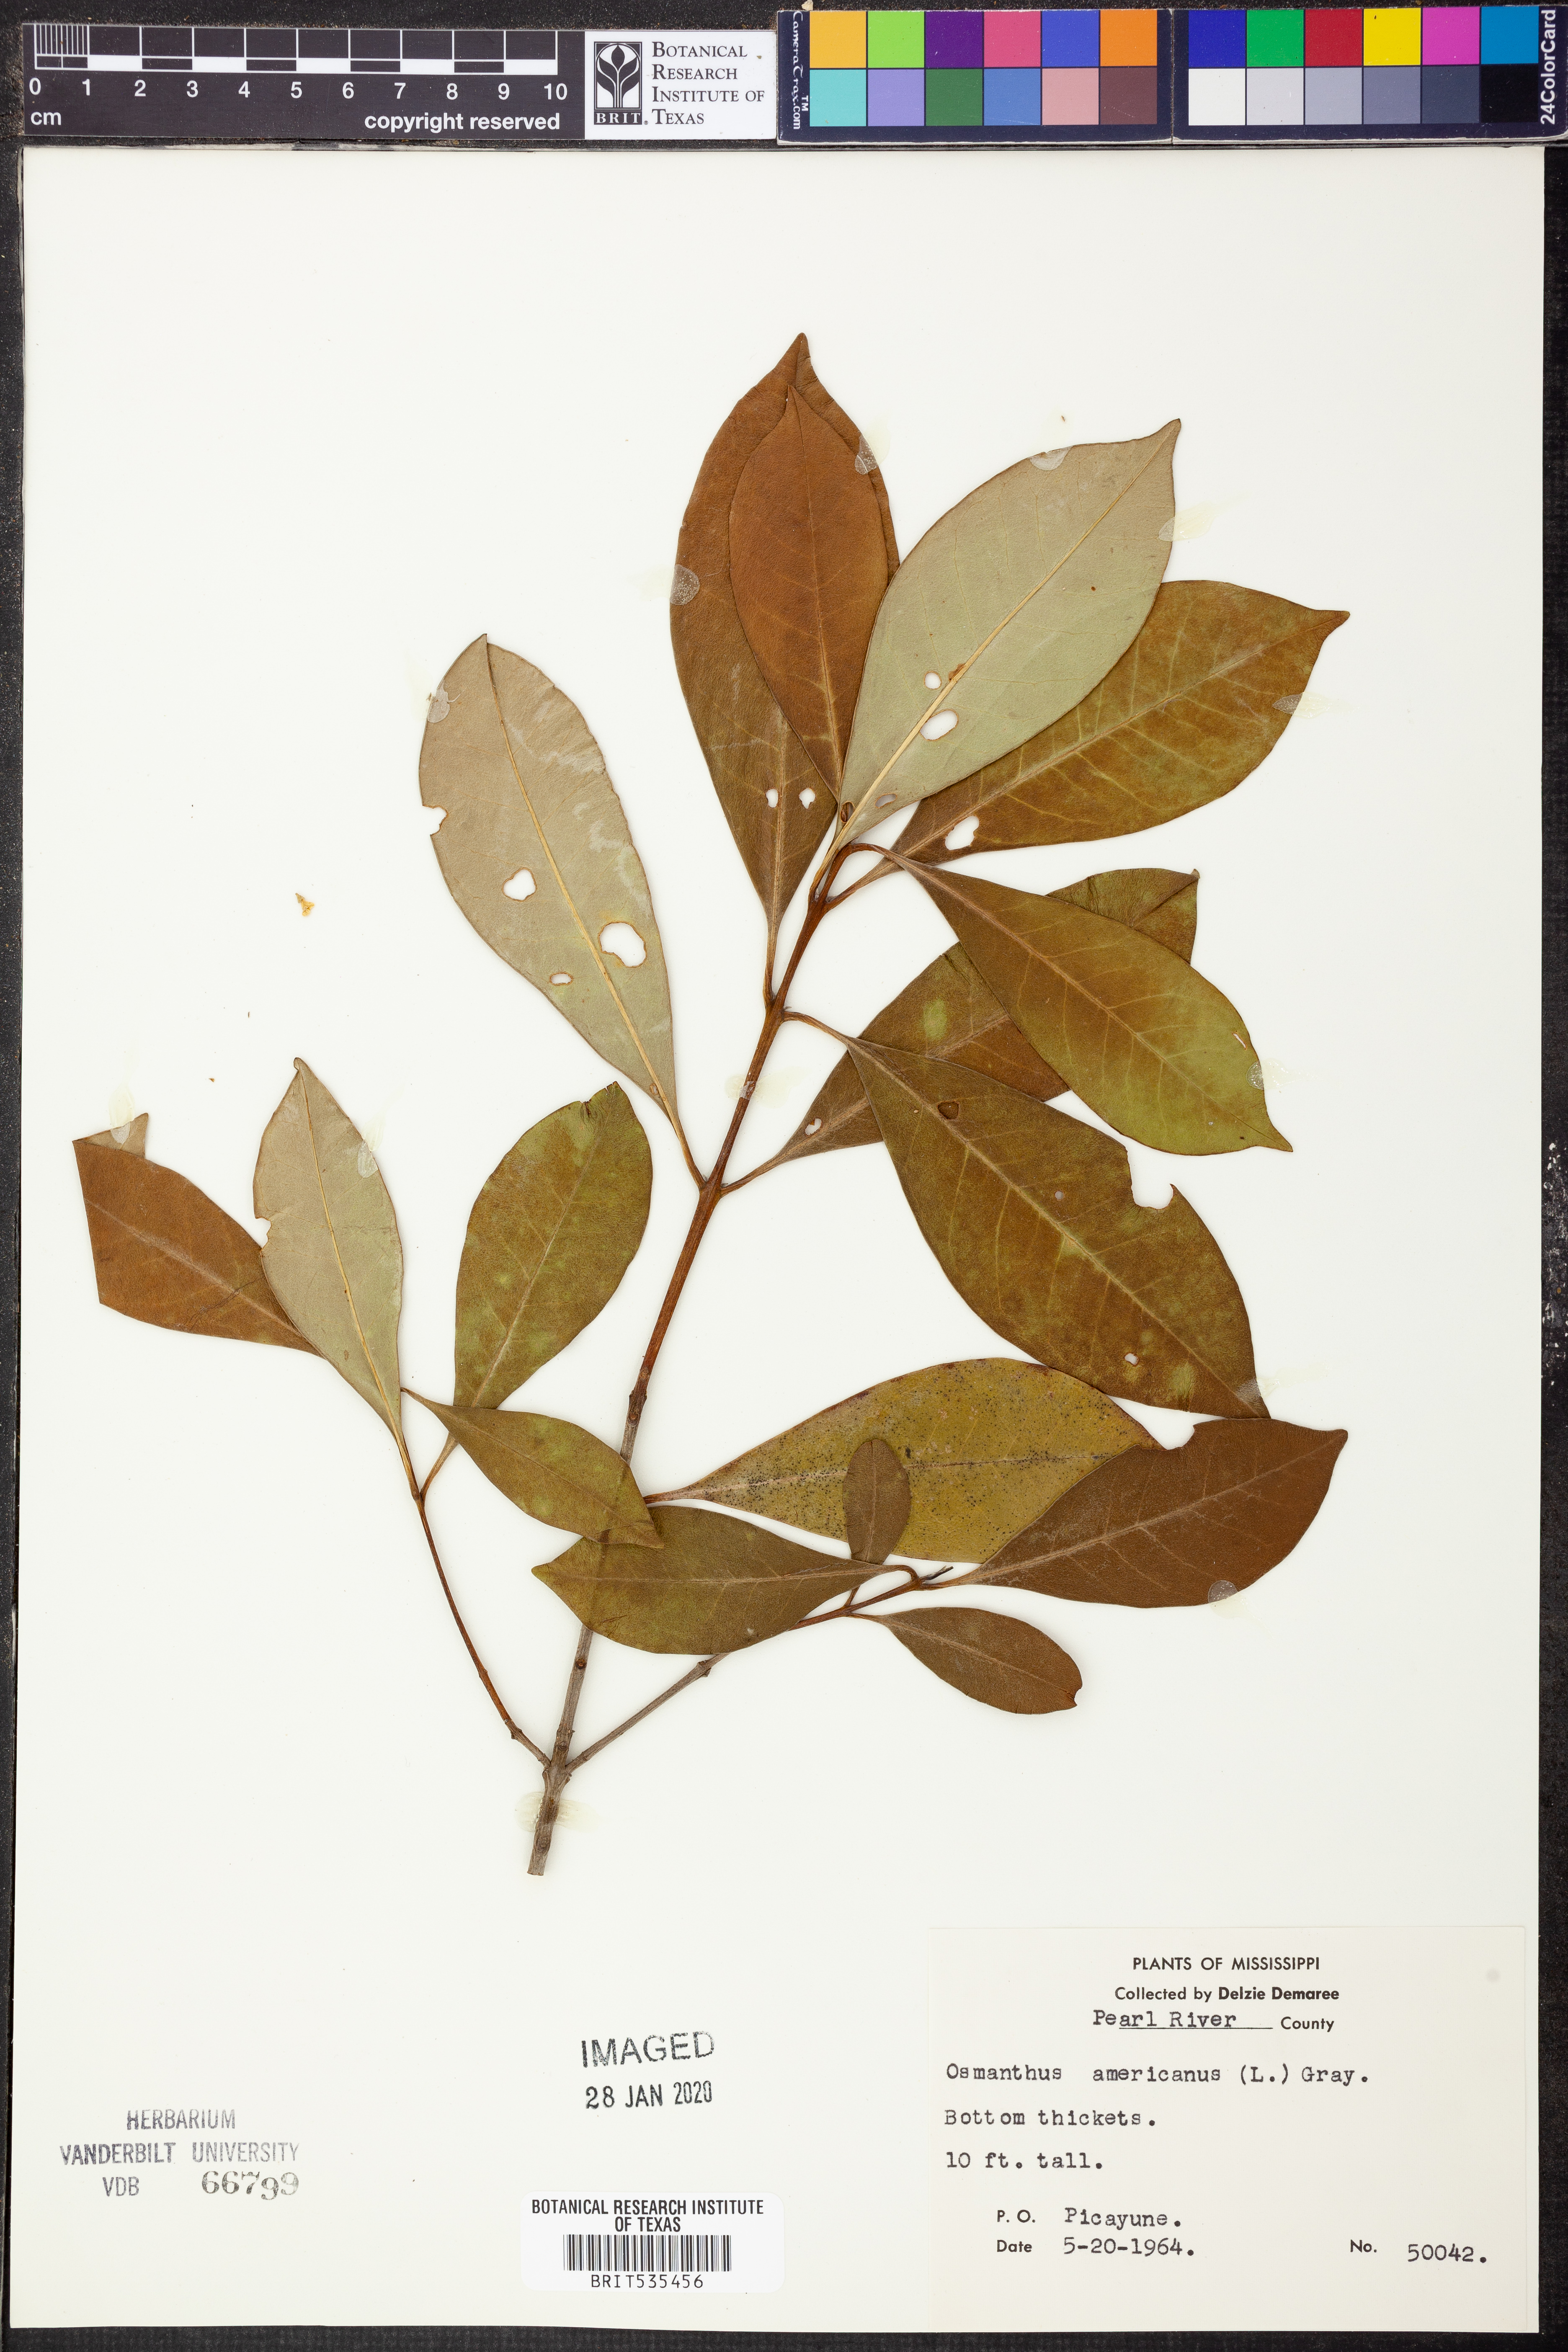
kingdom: Plantae
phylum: Tracheophyta
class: Magnoliopsida
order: Lamiales
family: Oleaceae
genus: Osmanthus
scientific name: Osmanthus americanus
